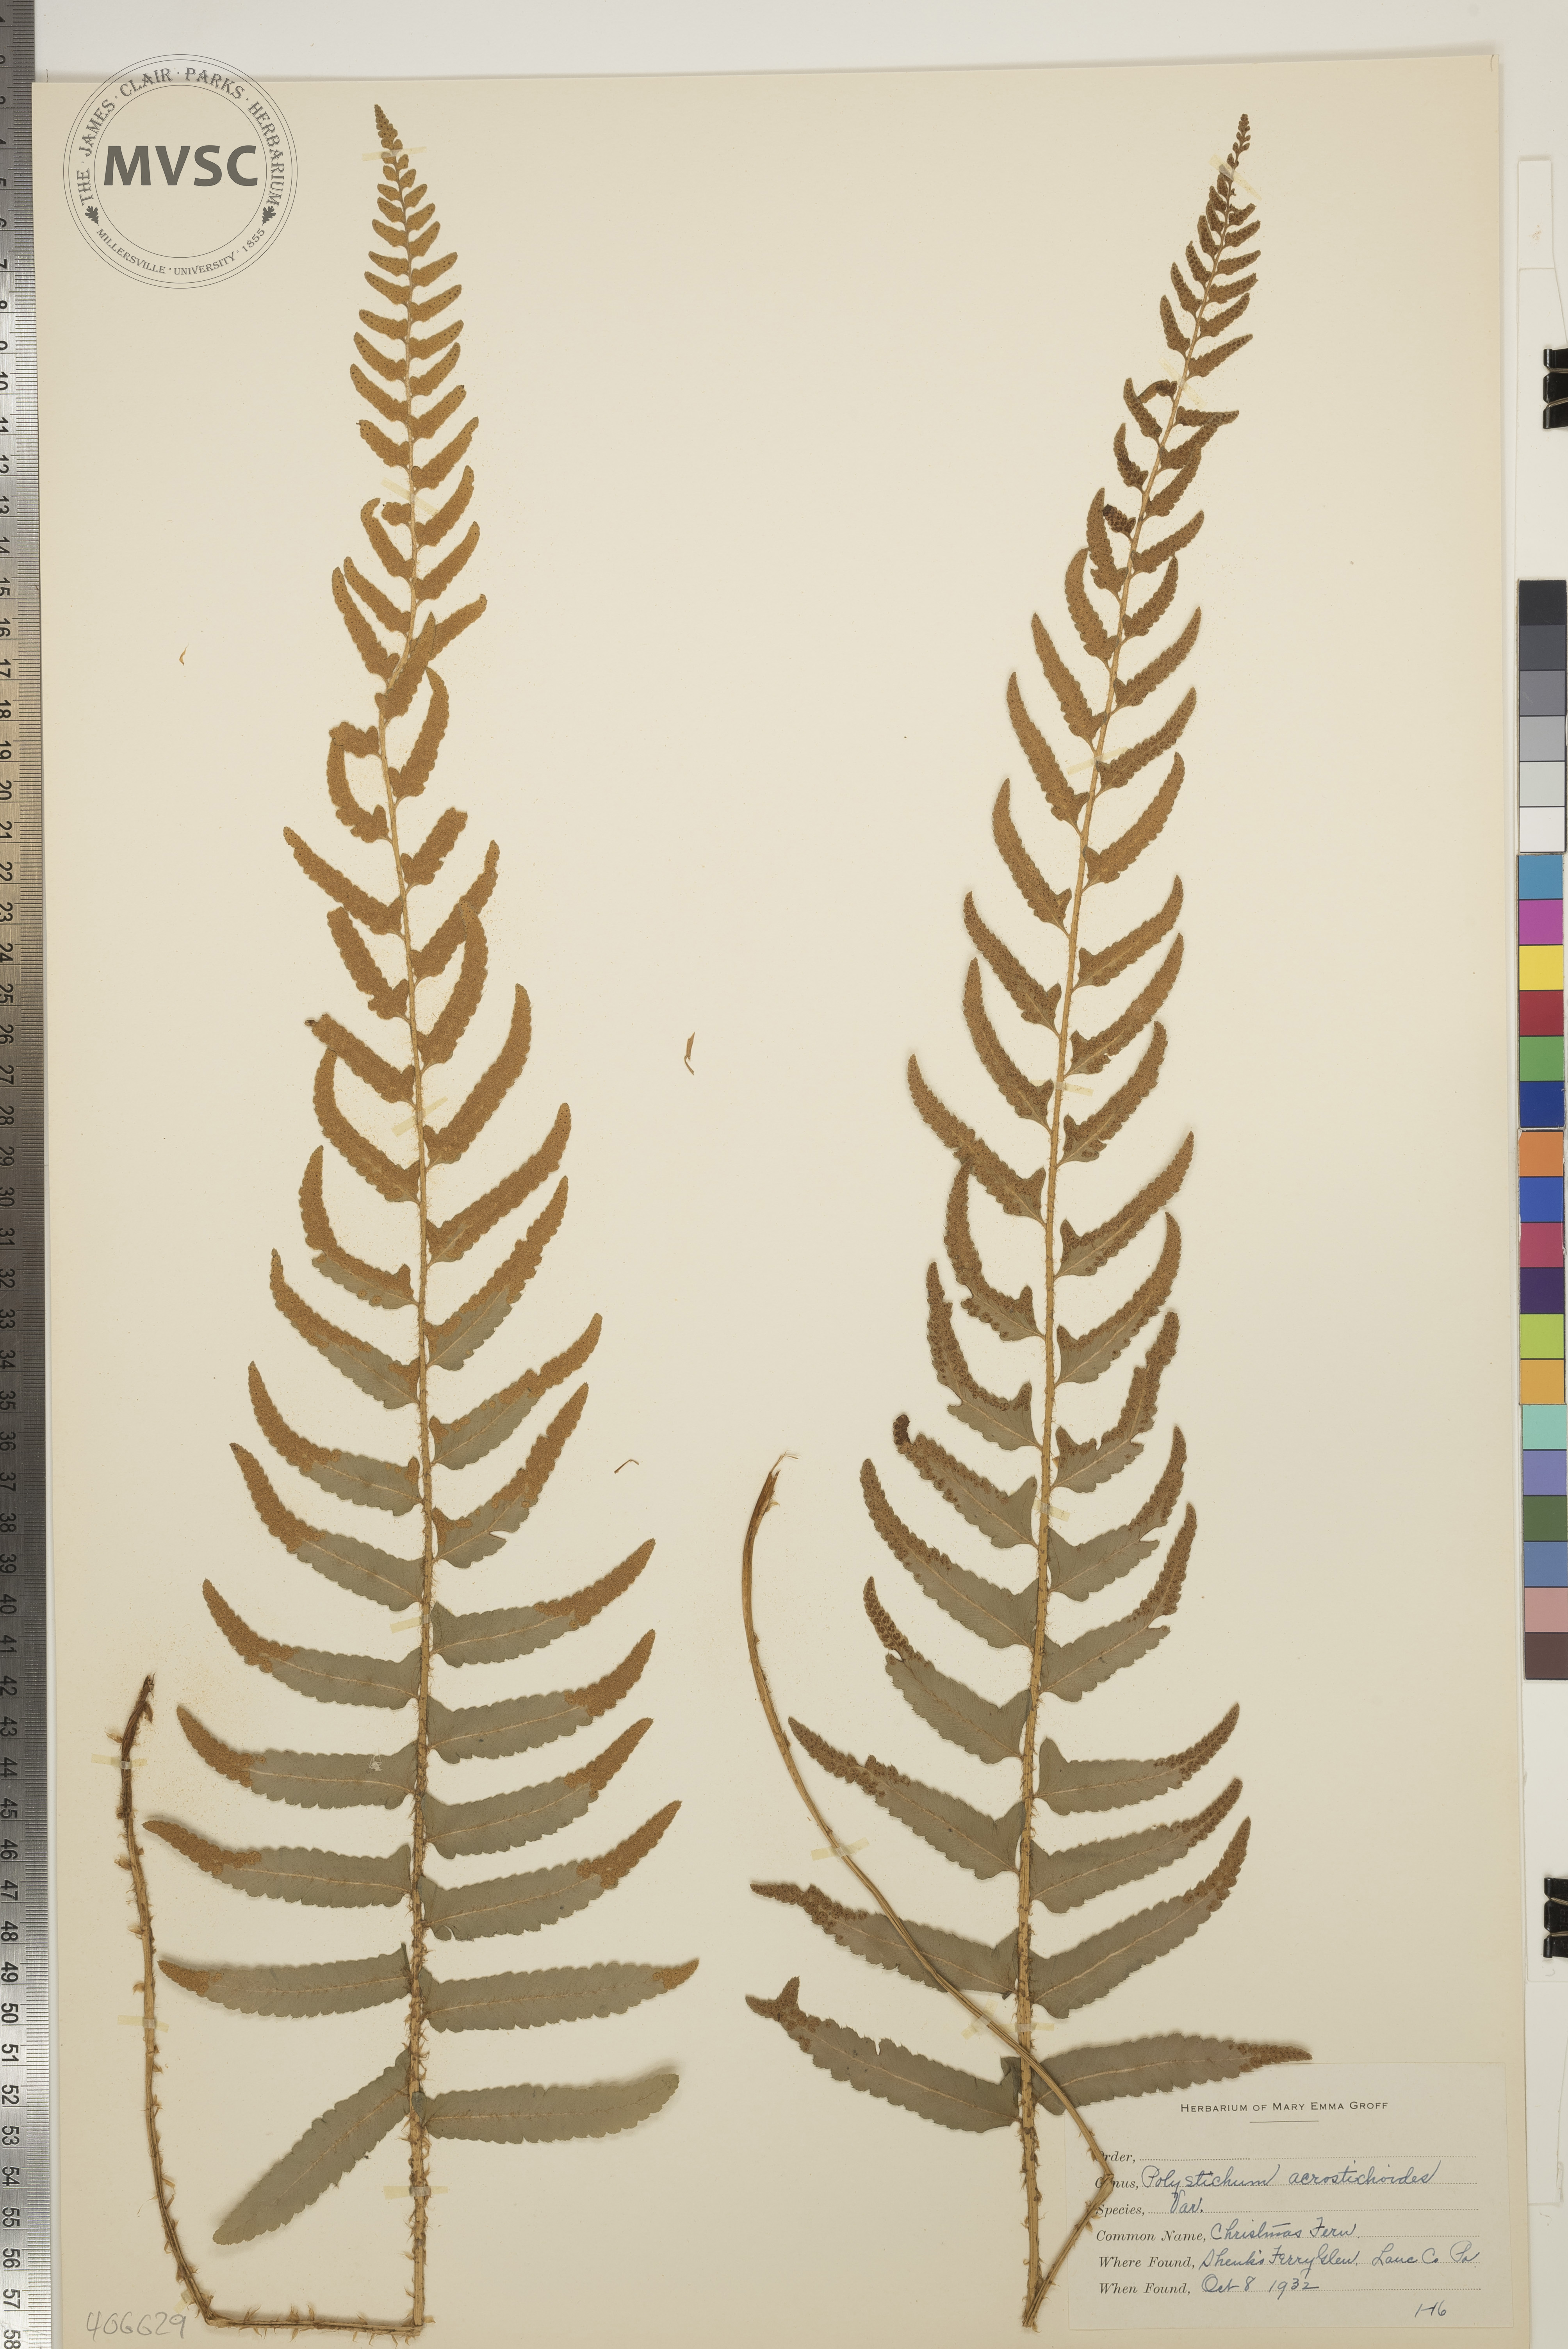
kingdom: Plantae
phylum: Tracheophyta
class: Polypodiopsida
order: Polypodiales
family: Dryopteridaceae
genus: Polystichum
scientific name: Polystichum acrostichoides
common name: Christmas Fern
